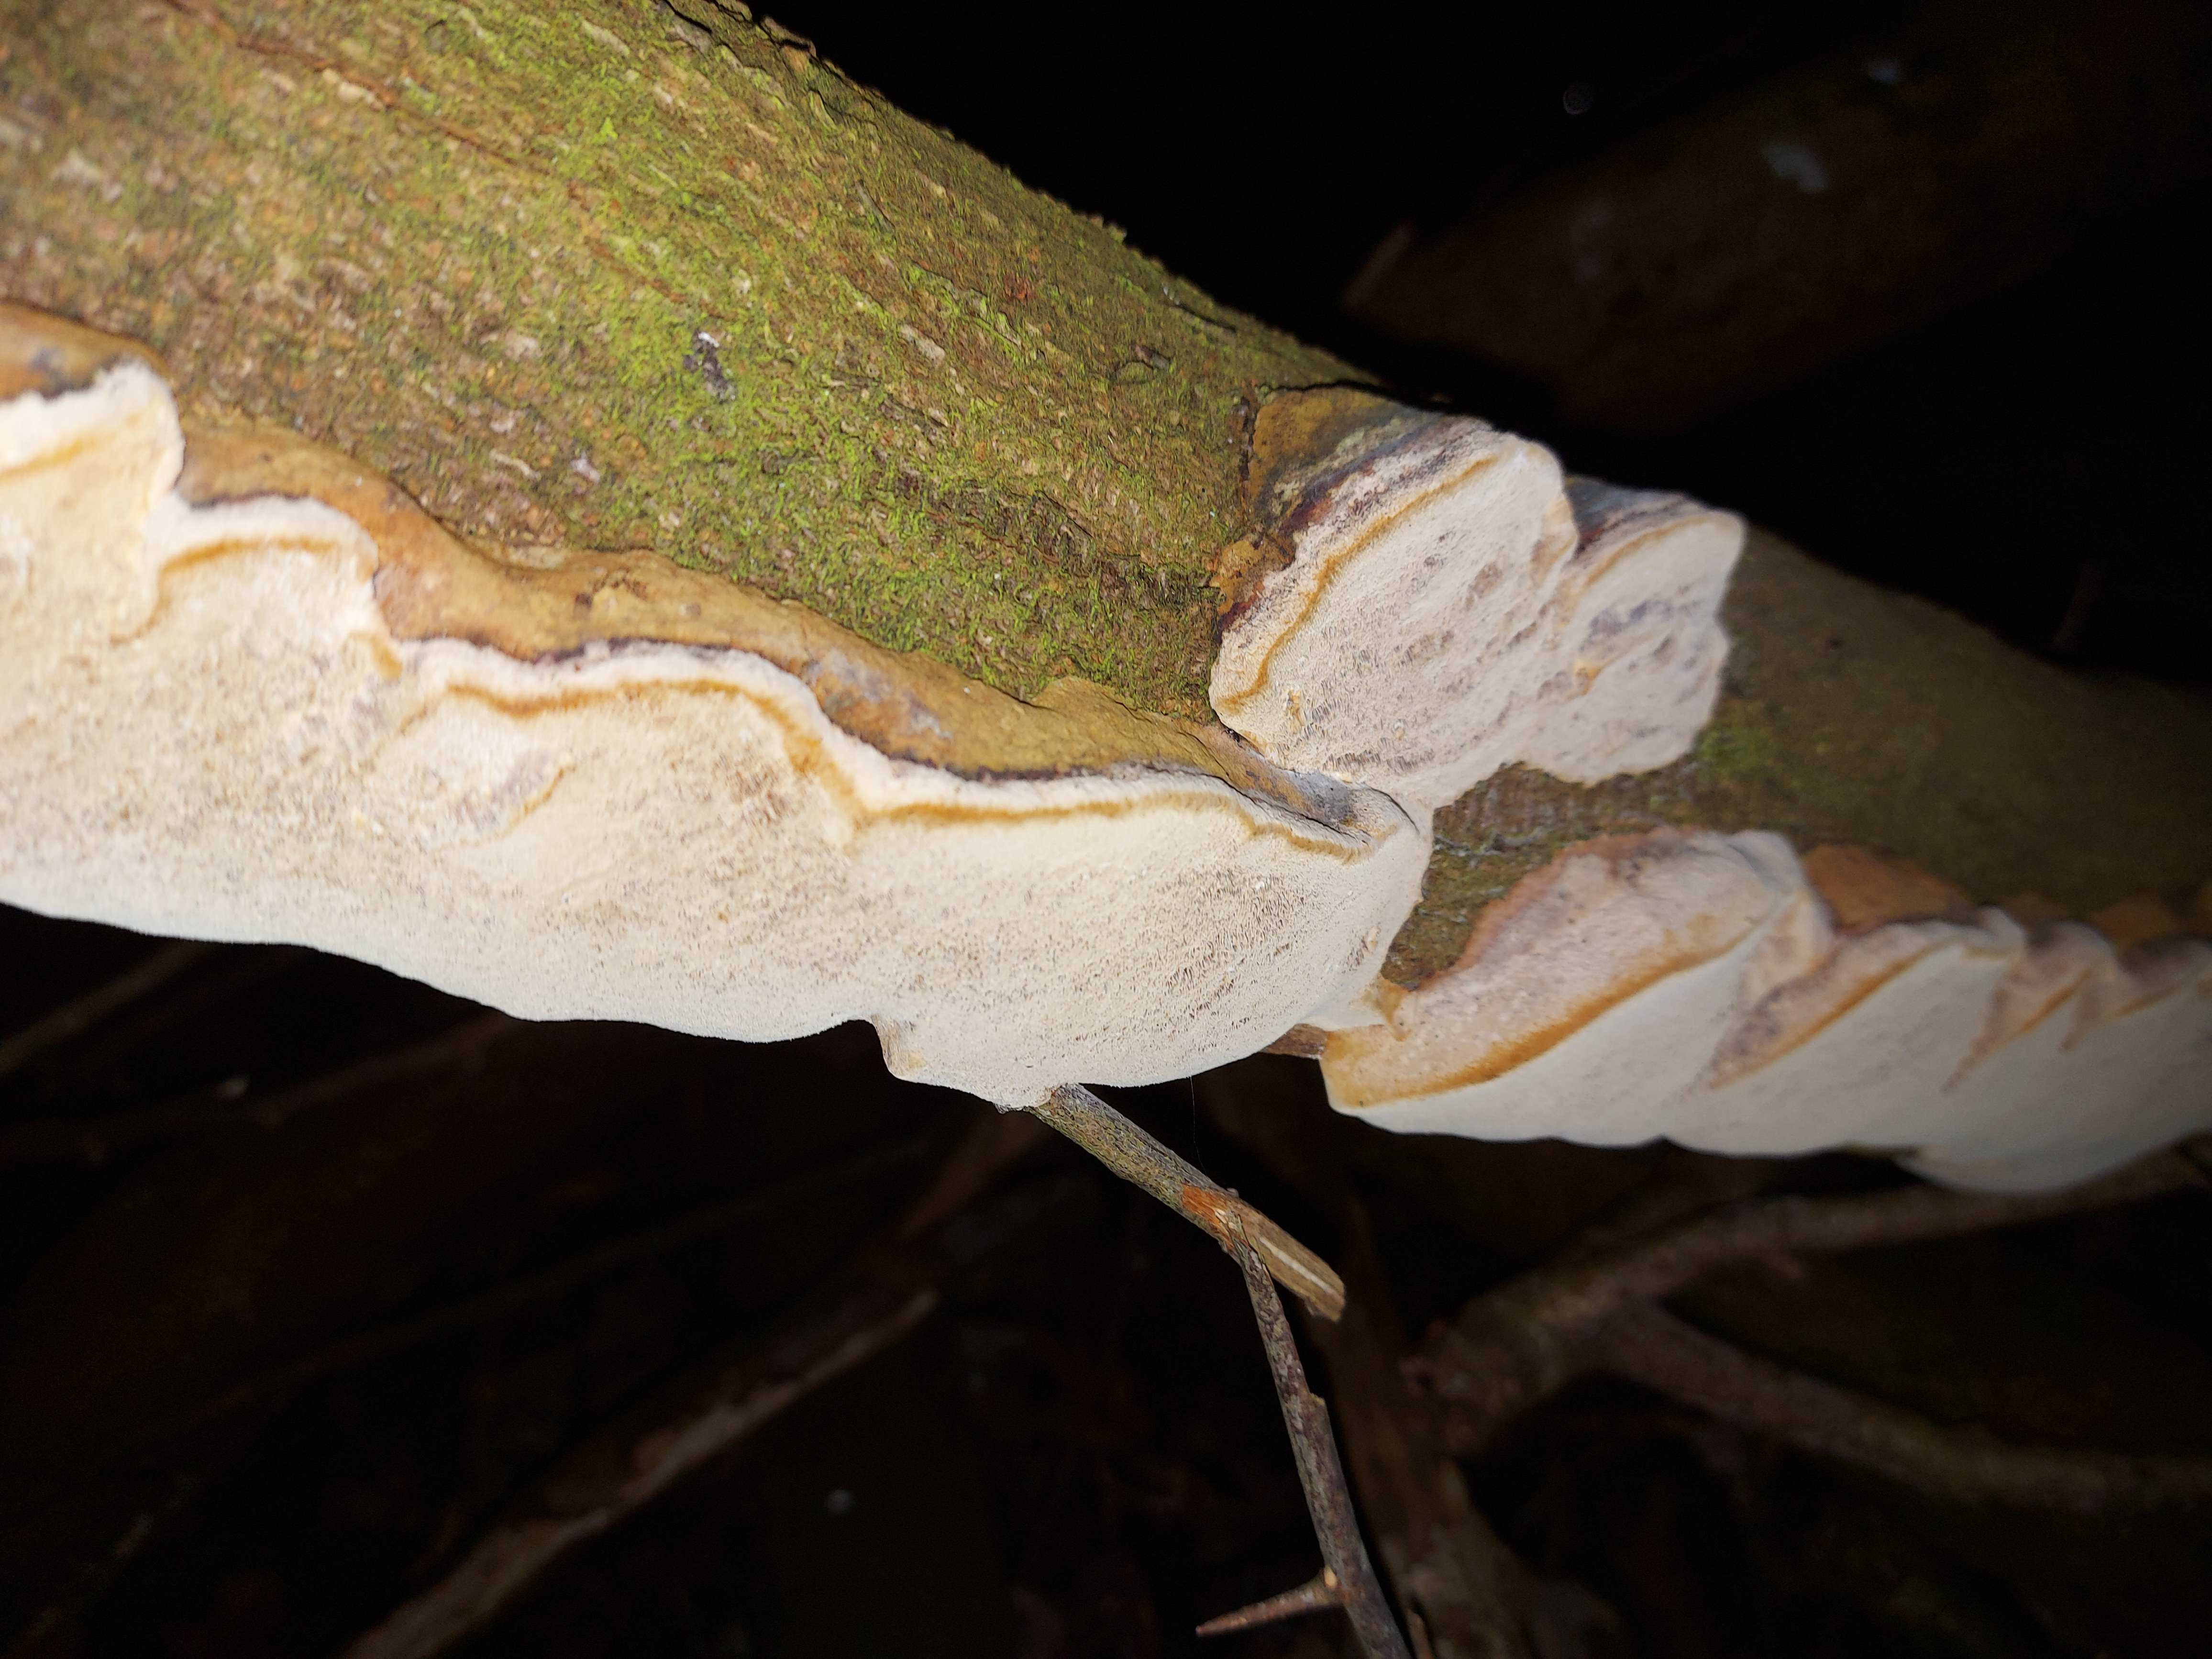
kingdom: Fungi
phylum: Basidiomycota
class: Agaricomycetes
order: Hymenochaetales
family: Hymenochaetaceae
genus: Phellinus
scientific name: Phellinus pomaceus
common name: blomme-ildporesvamp
